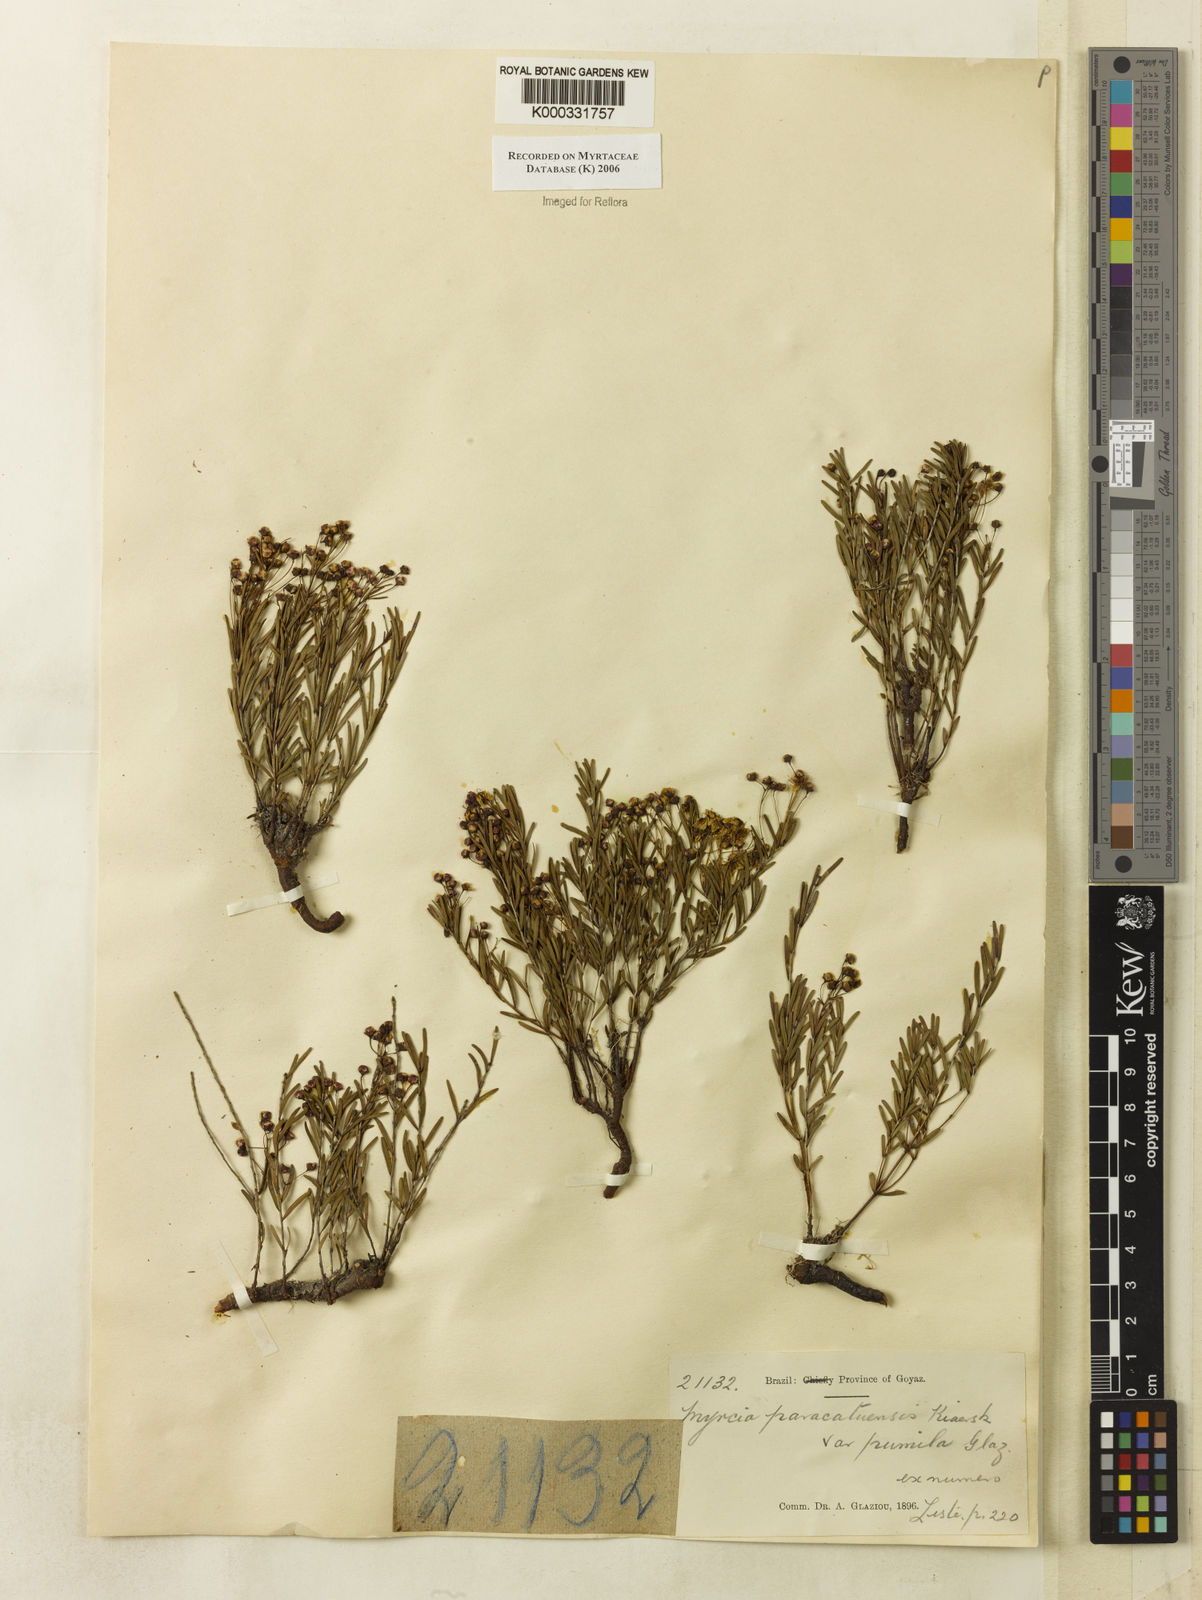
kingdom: Plantae
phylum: Tracheophyta
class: Magnoliopsida
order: Myrtales
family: Myrtaceae
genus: Myrcia
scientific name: Myrcia paracatuensis
